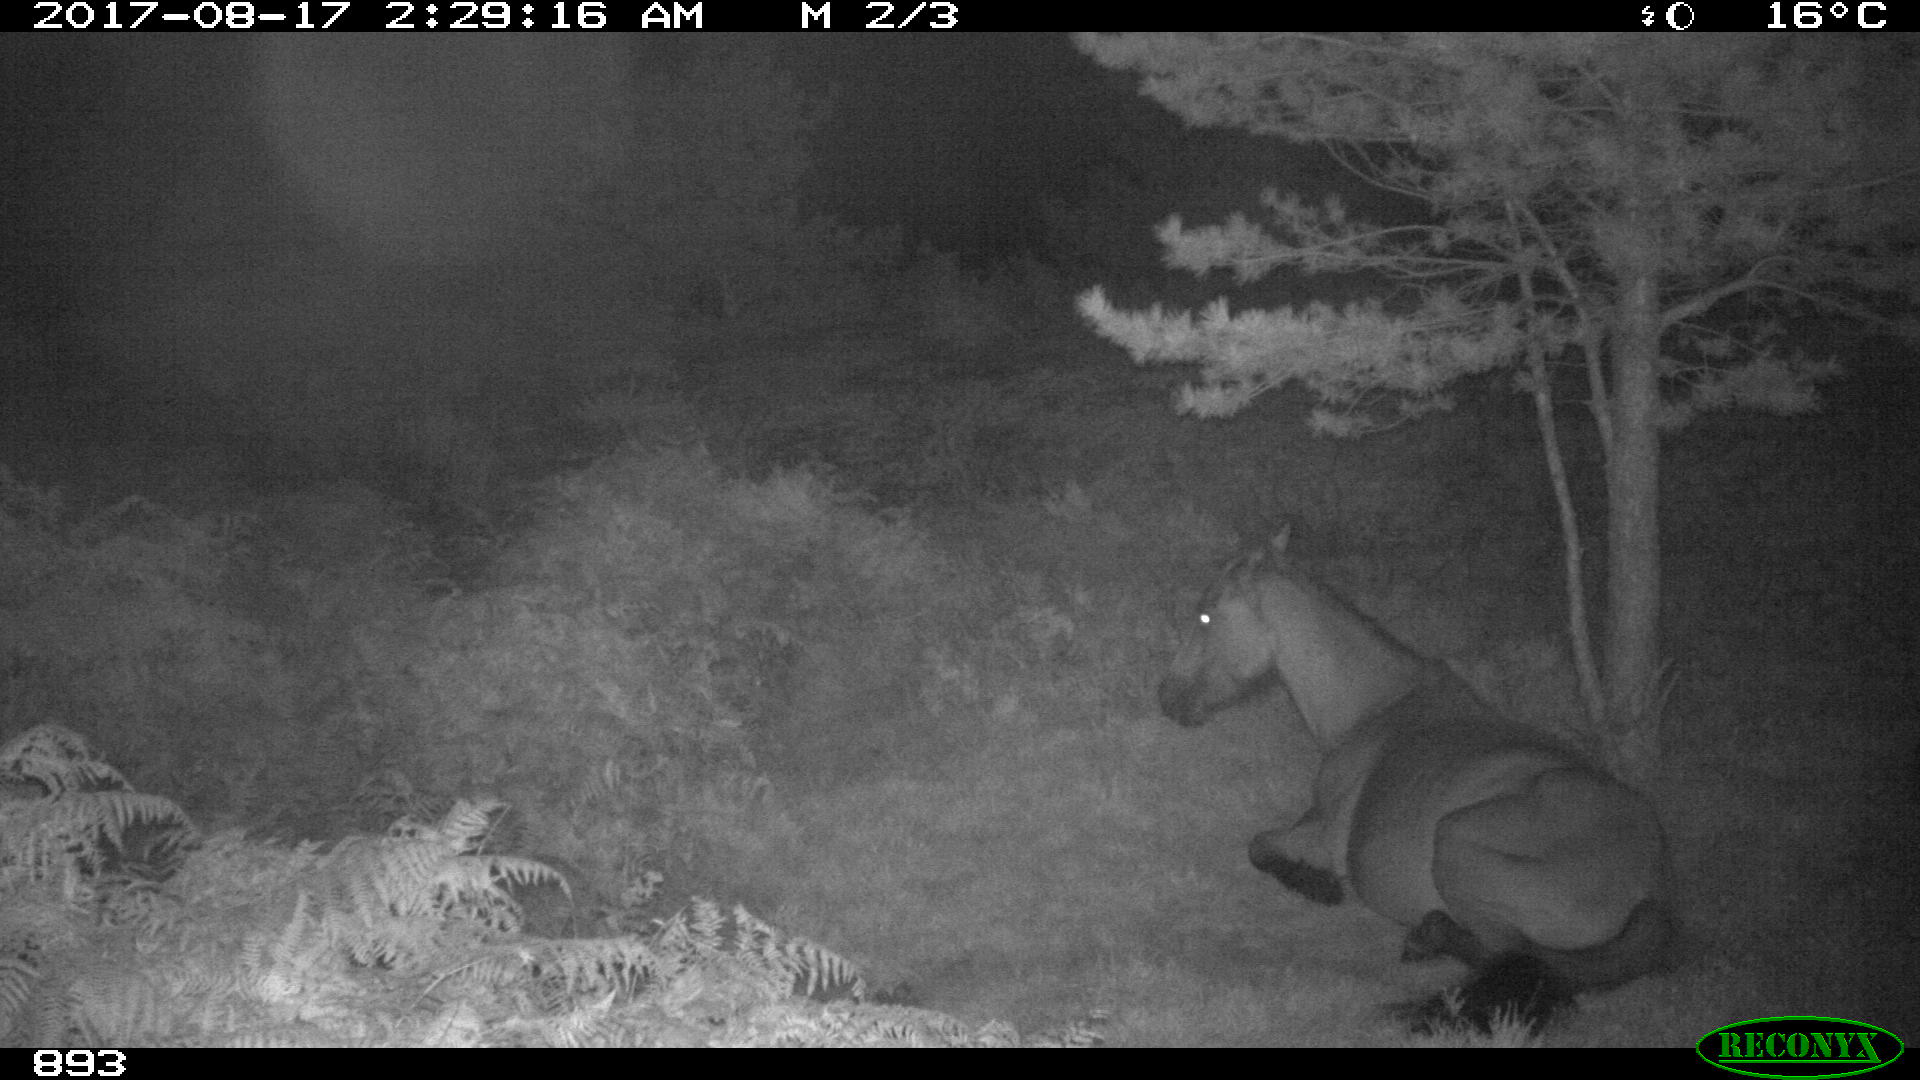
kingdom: Animalia
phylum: Chordata
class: Mammalia
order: Perissodactyla
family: Equidae
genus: Equus
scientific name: Equus caballus
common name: Horse
